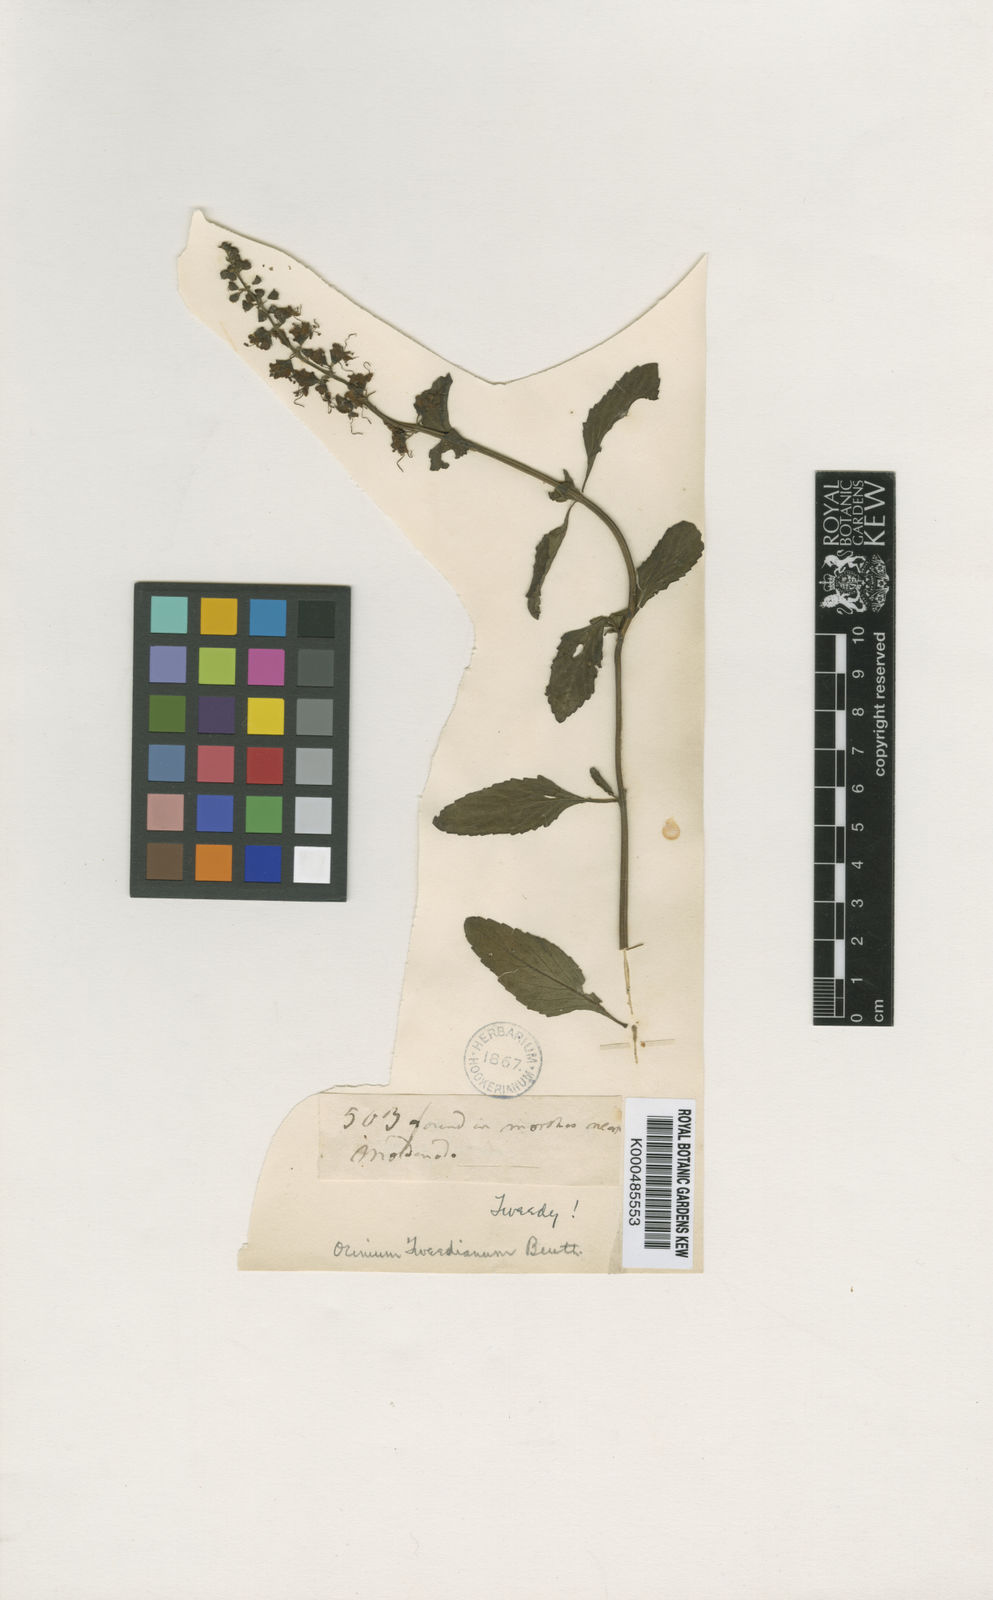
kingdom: Plantae
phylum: Tracheophyta
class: Magnoliopsida
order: Lamiales
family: Lamiaceae
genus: Ocimum
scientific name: Ocimum carnosum
